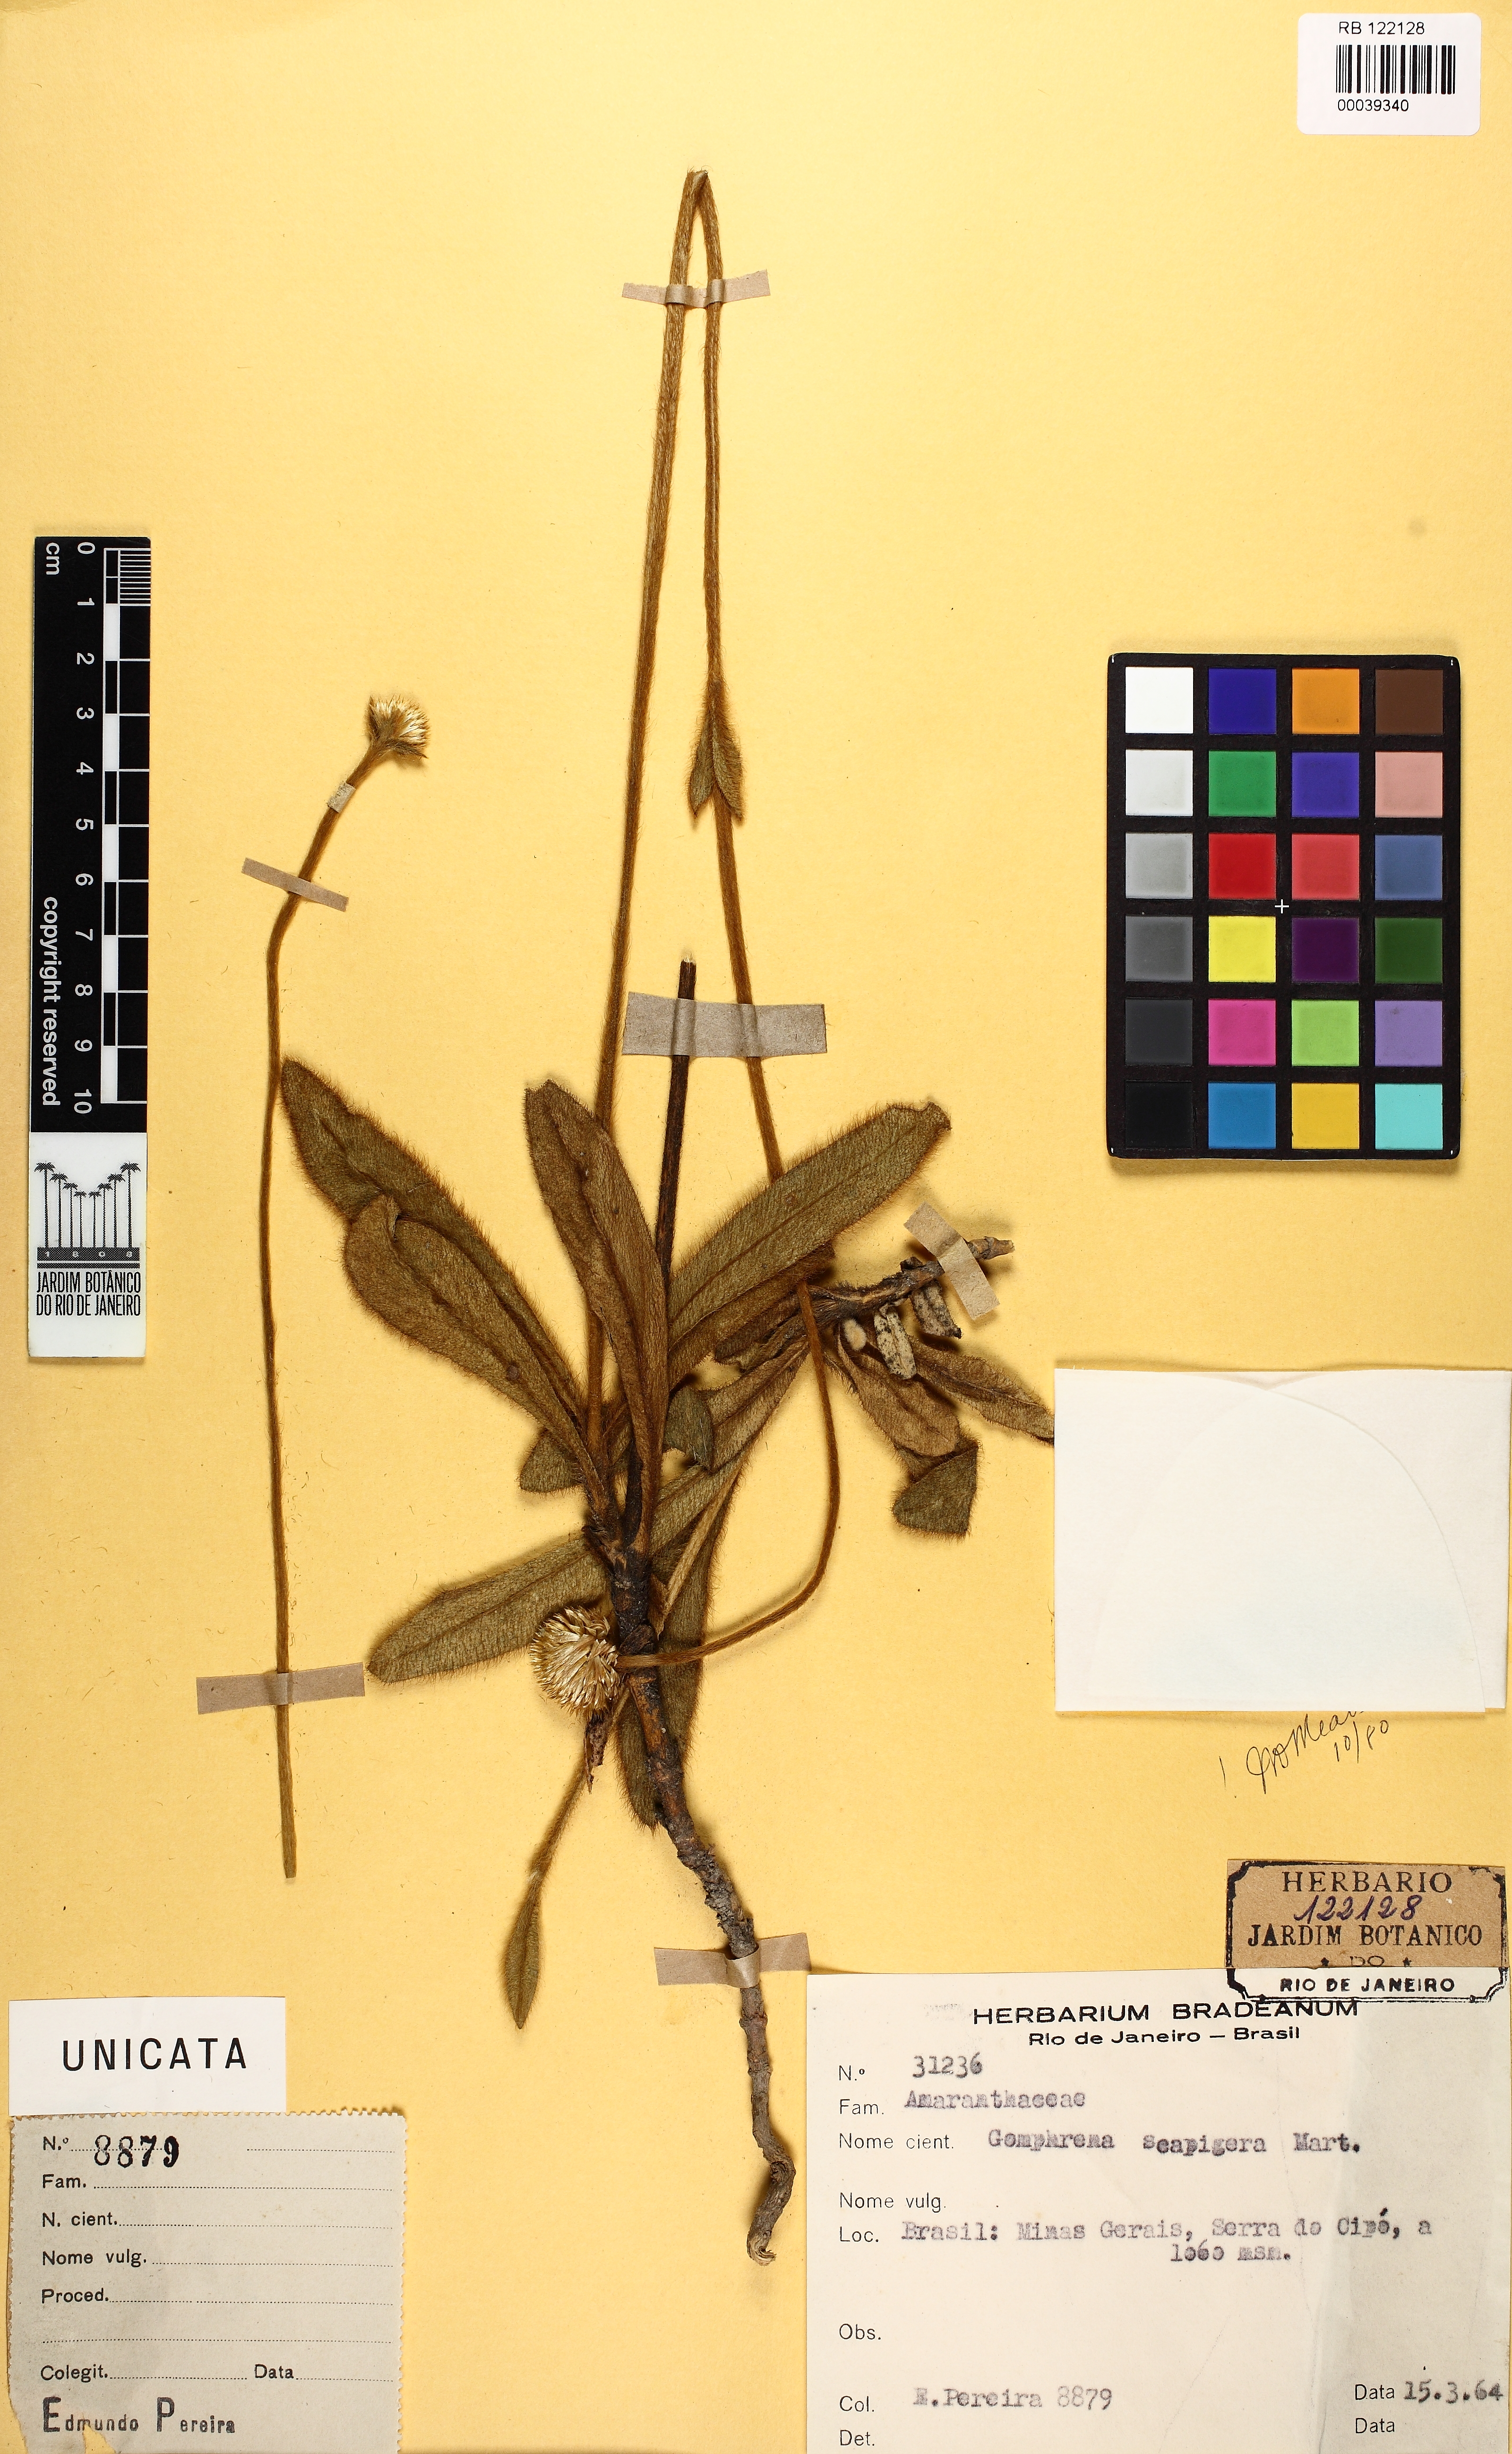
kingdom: Plantae
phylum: Tracheophyta
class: Magnoliopsida
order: Caryophyllales
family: Amaranthaceae
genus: Gomphrena
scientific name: Gomphrena scapigera
